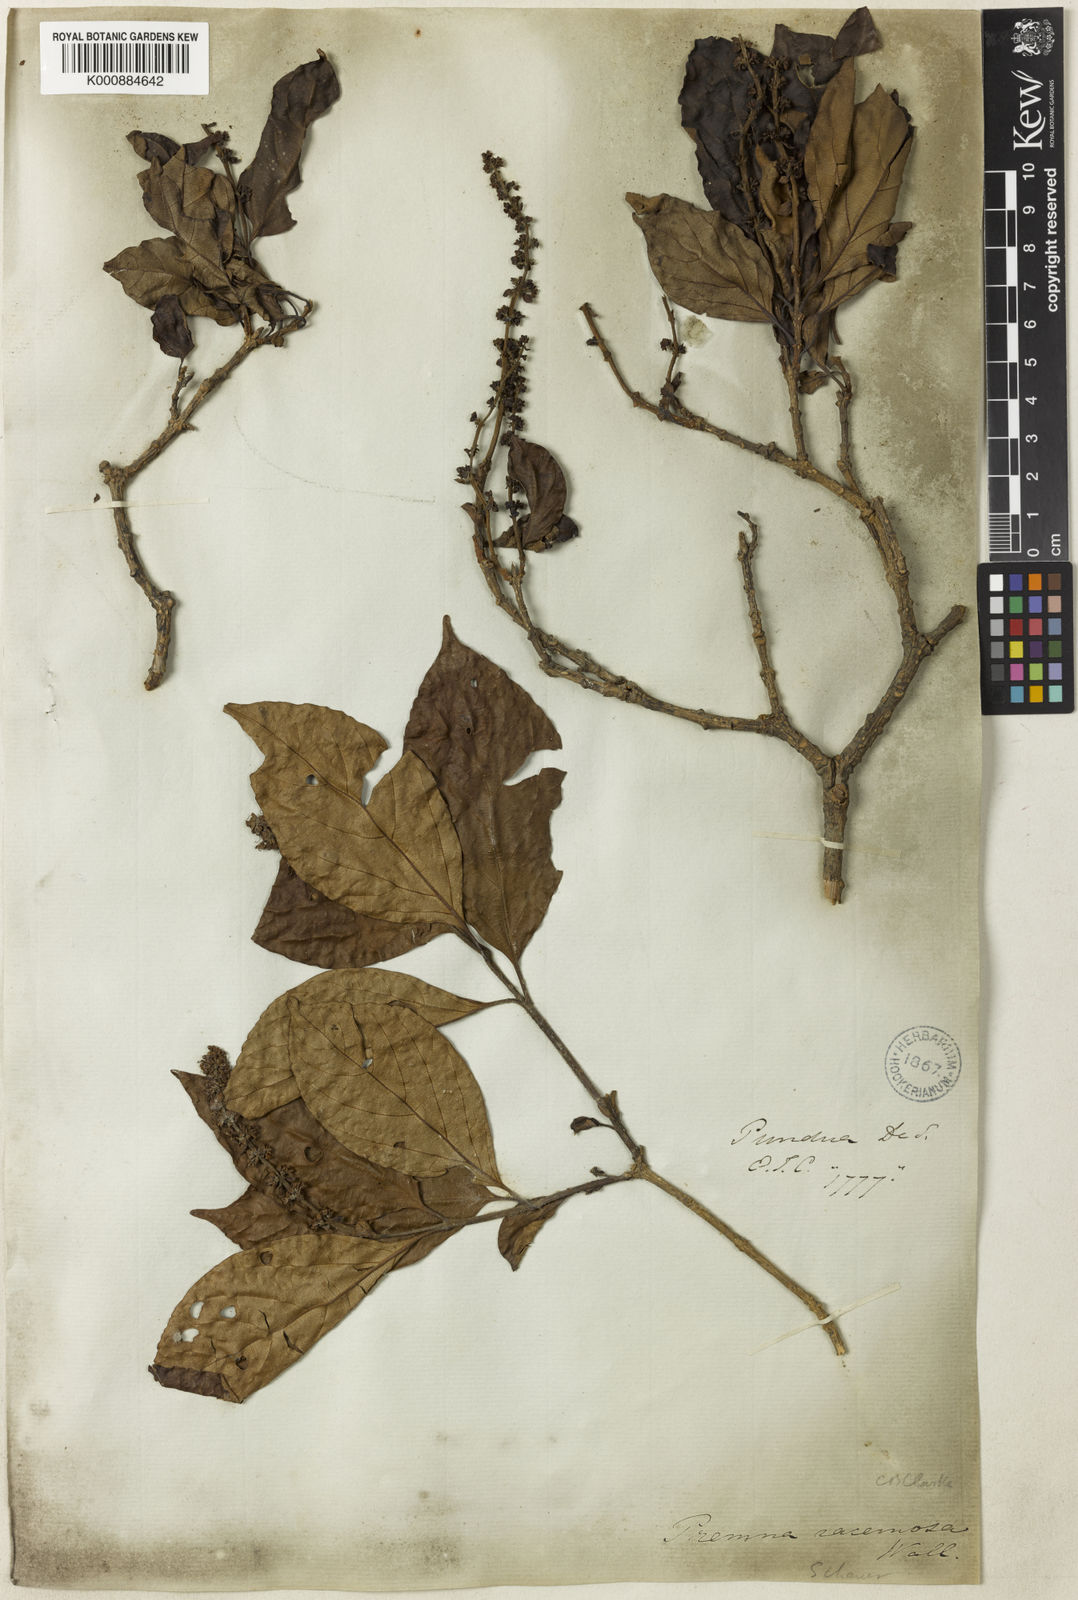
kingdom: Plantae
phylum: Tracheophyta
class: Magnoliopsida
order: Lamiales
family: Lamiaceae
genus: Premna
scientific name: Premna bracteata
